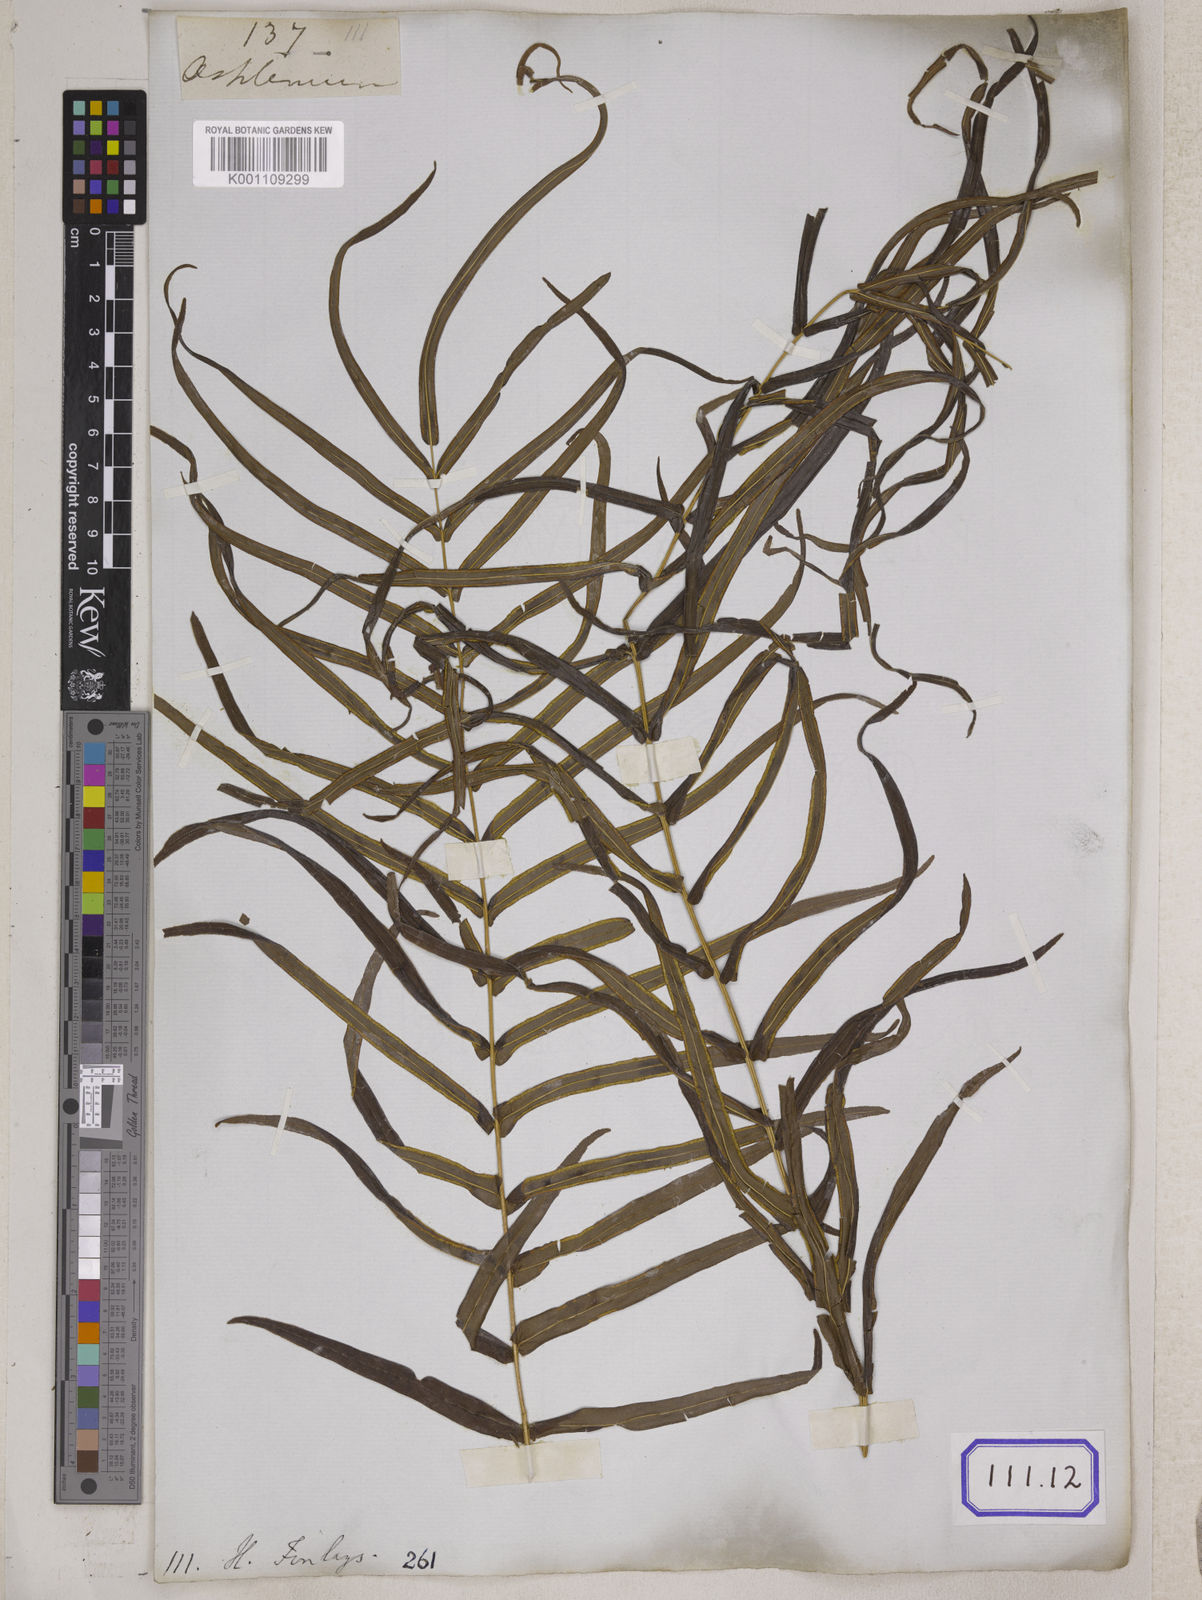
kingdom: Plantae
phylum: Tracheophyta
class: Polypodiopsida
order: Polypodiales
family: Pteridaceae
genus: Pteris
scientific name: Pteris longifolia
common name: Longleaf brake
